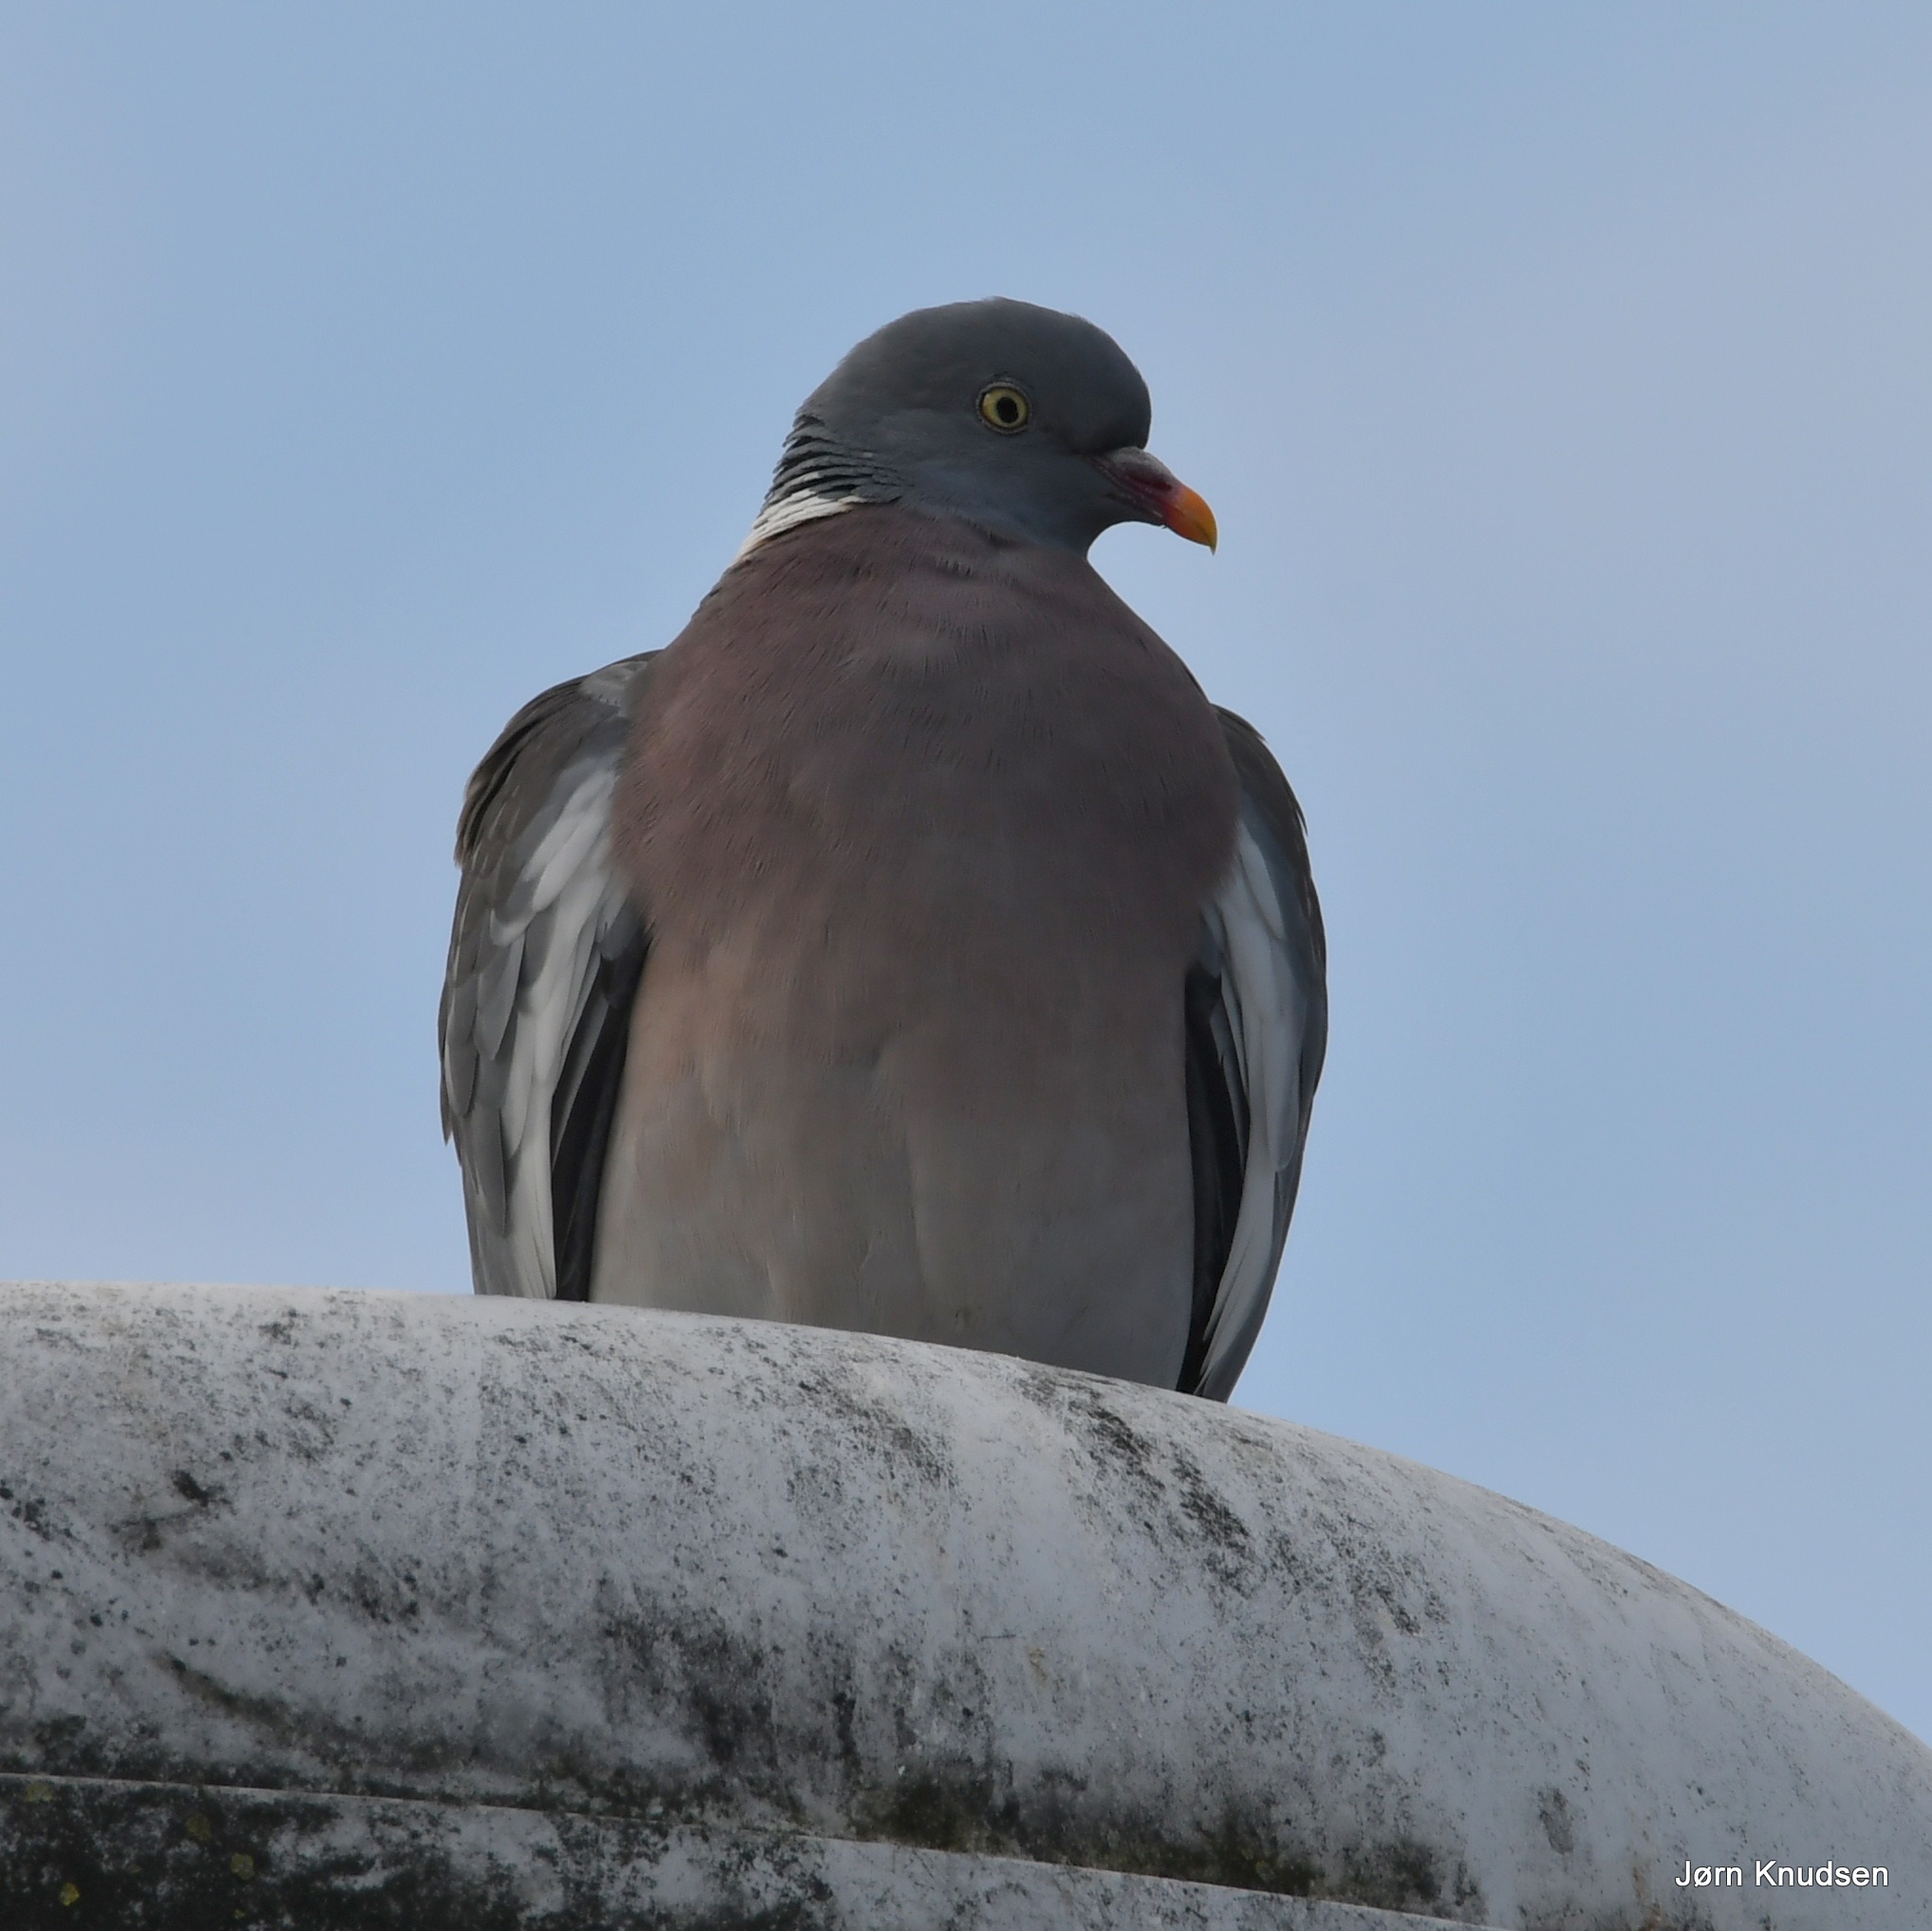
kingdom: Animalia
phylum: Chordata
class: Aves
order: Columbiformes
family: Columbidae
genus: Columba
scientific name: Columba palumbus
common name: Ringdue
